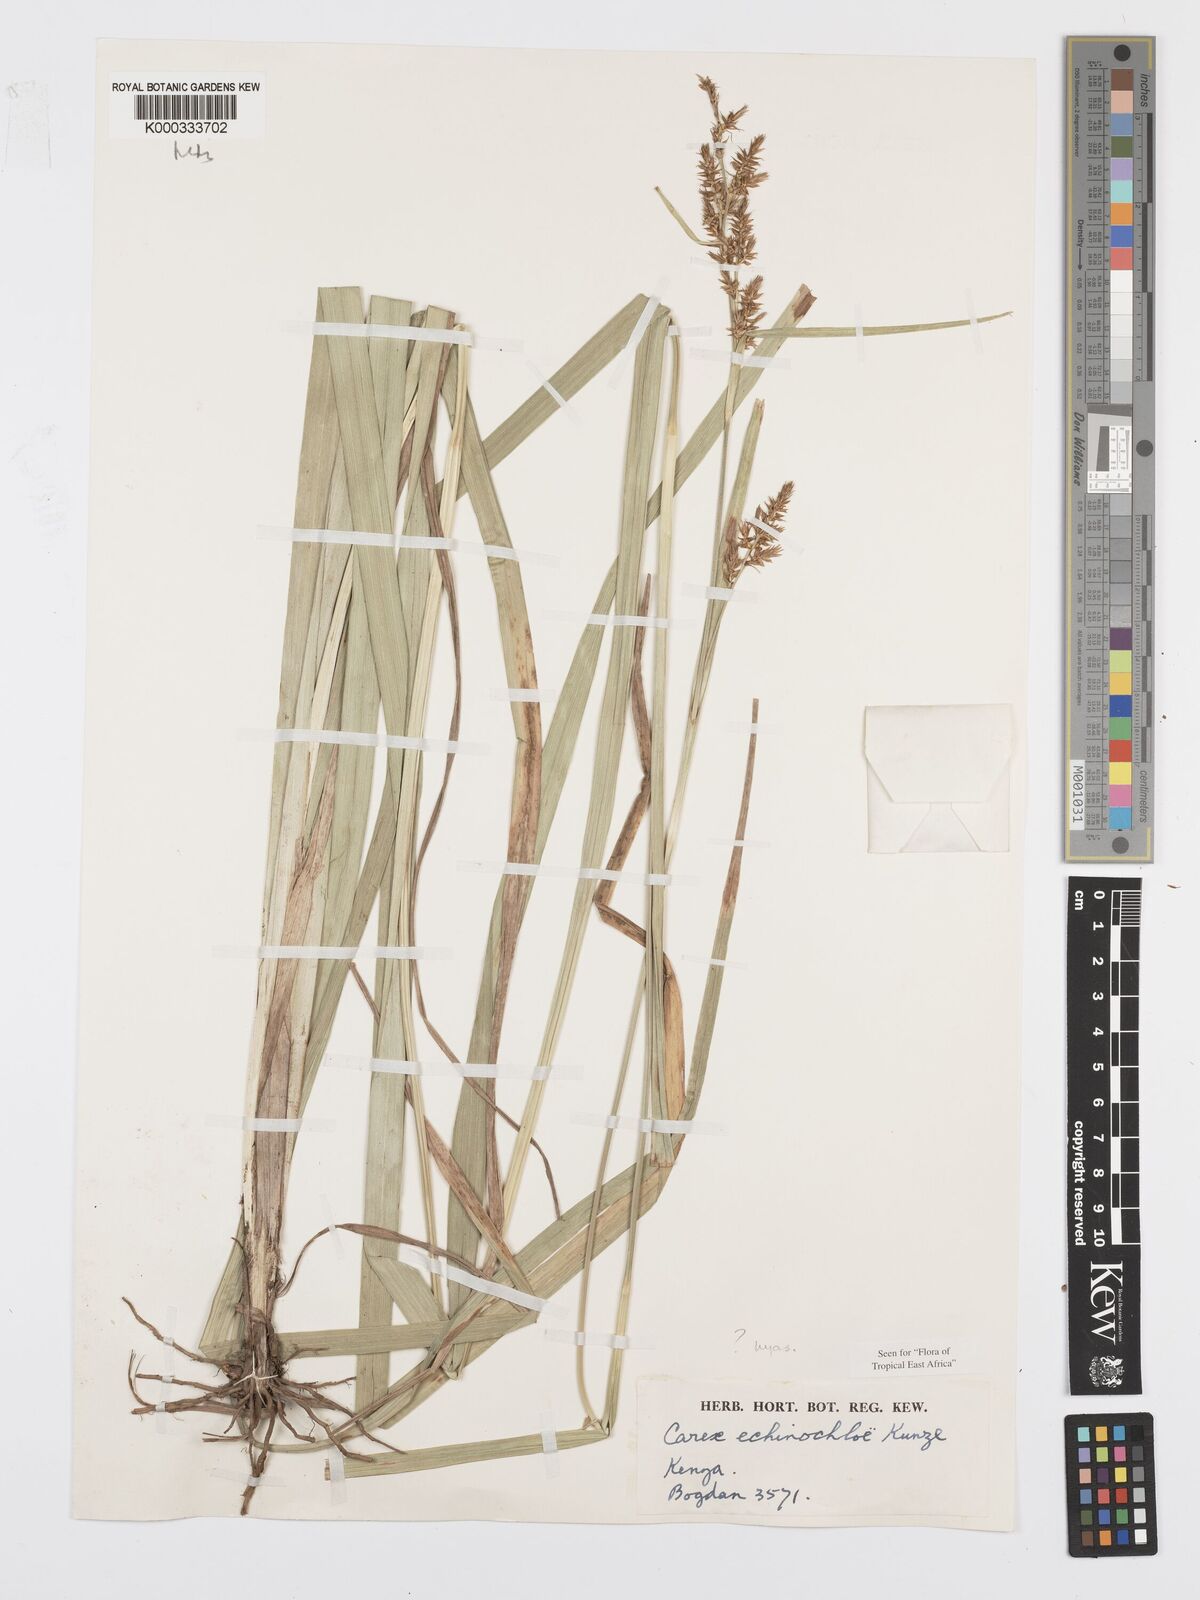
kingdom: Plantae
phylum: Tracheophyta
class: Liliopsida
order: Poales
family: Cyperaceae
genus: Carex
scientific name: Carex echinochloe
